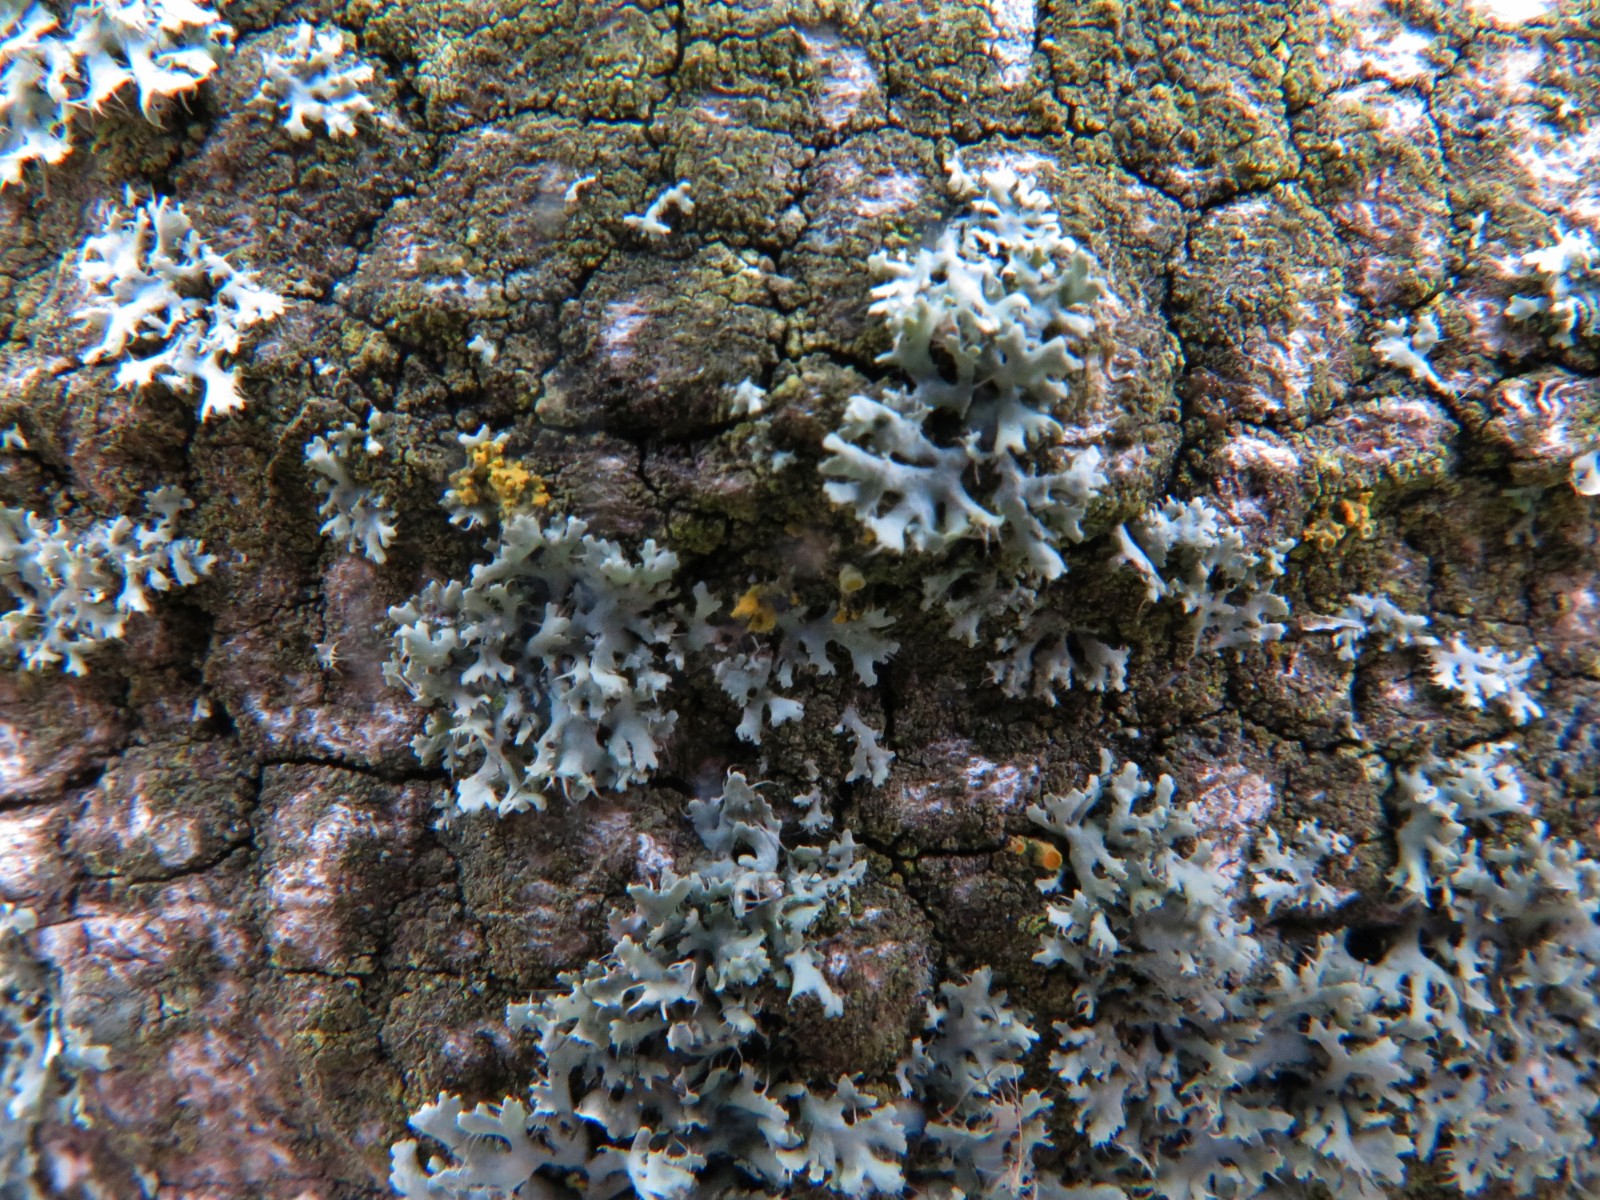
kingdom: Fungi
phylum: Ascomycota
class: Lecanoromycetes
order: Caliciales
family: Physciaceae
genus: Physcia
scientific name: Physcia tenella
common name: spæd rosetlav
